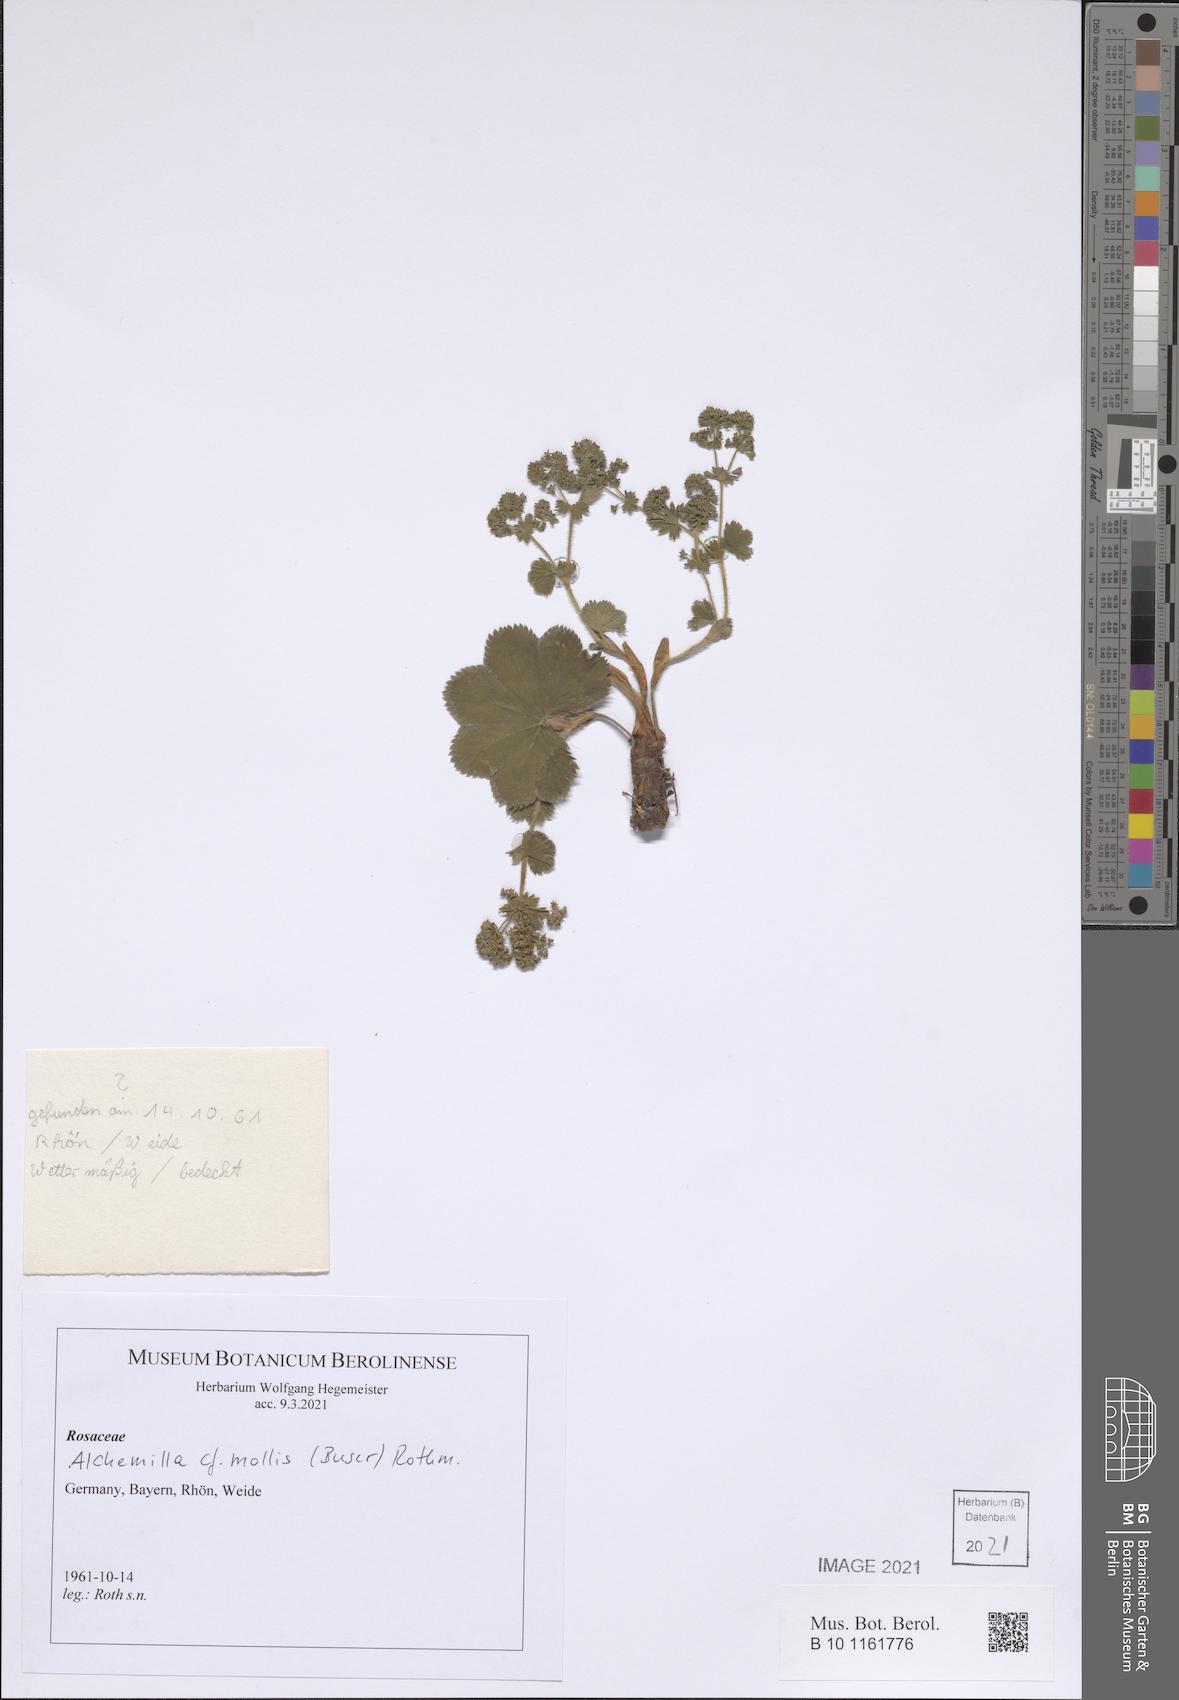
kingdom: Plantae
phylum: Tracheophyta
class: Magnoliopsida
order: Rosales
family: Rosaceae
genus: Alchemilla
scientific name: Alchemilla mollis
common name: Lady's-mantle
